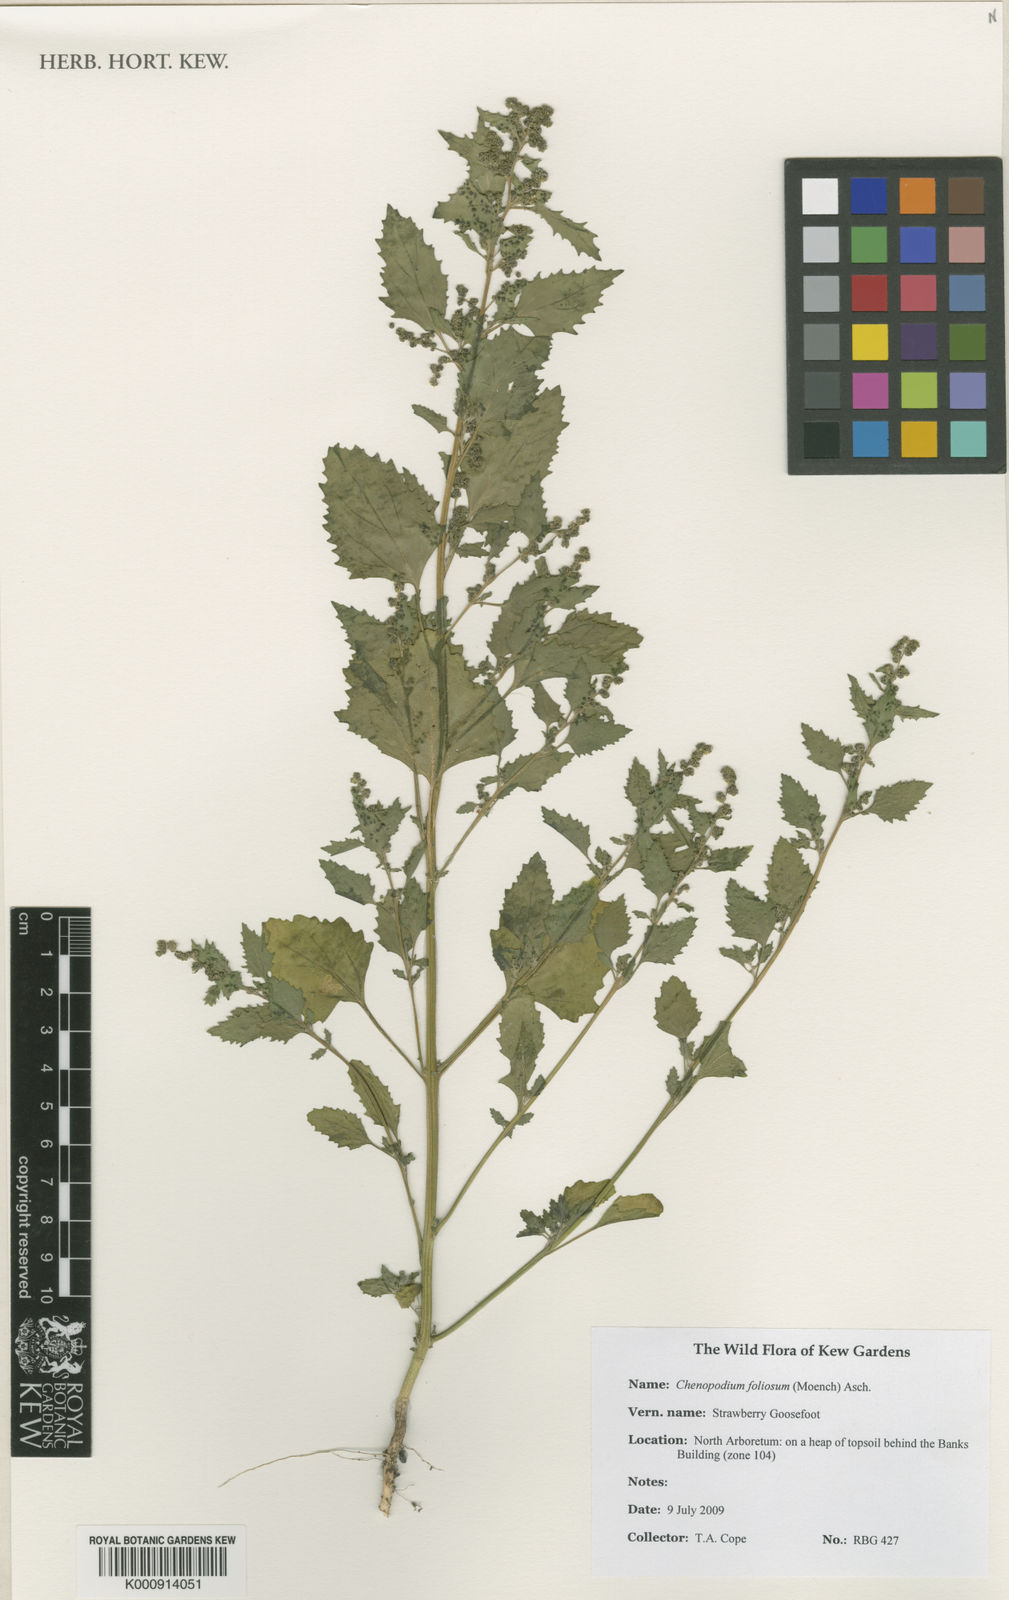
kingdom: Plantae
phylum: Tracheophyta
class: Magnoliopsida
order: Caryophyllales
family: Amaranthaceae
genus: Blitum
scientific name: Blitum virgatum
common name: Strawberry goosefoot
